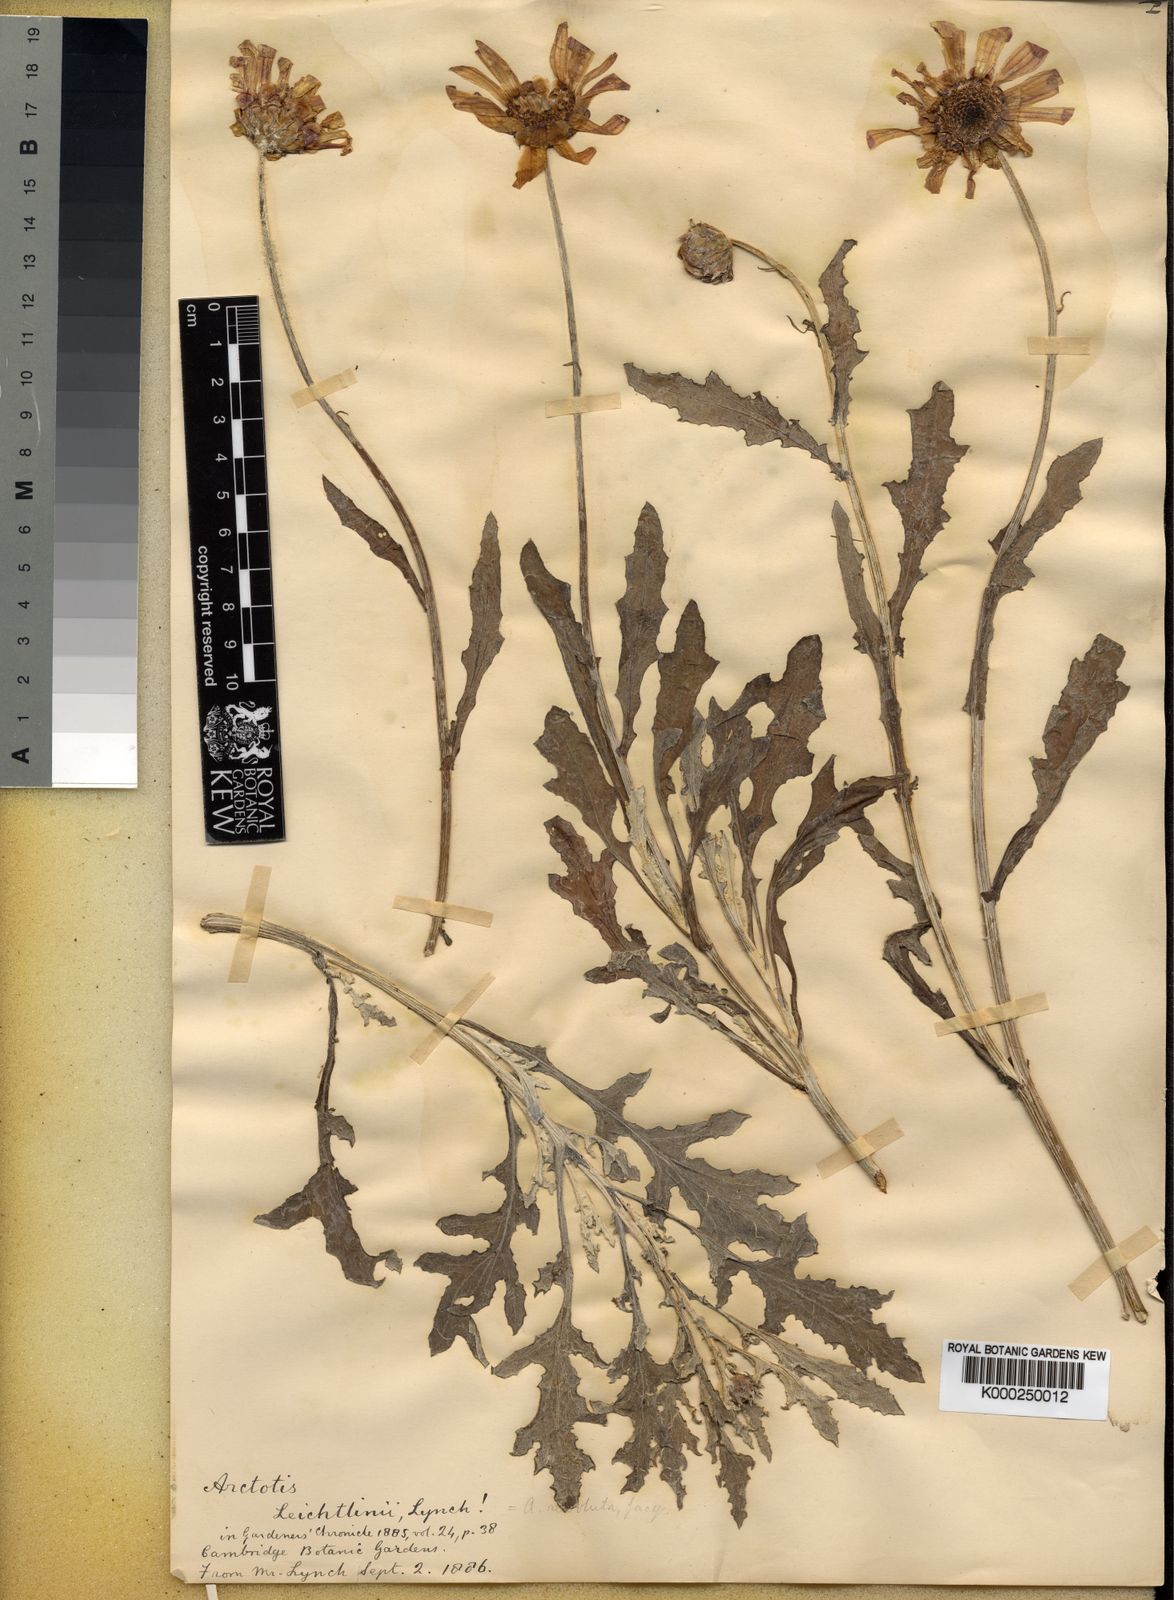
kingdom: Plantae
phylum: Tracheophyta
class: Magnoliopsida
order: Asterales
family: Asteraceae
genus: Arctotis
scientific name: Arctotis revoluta
